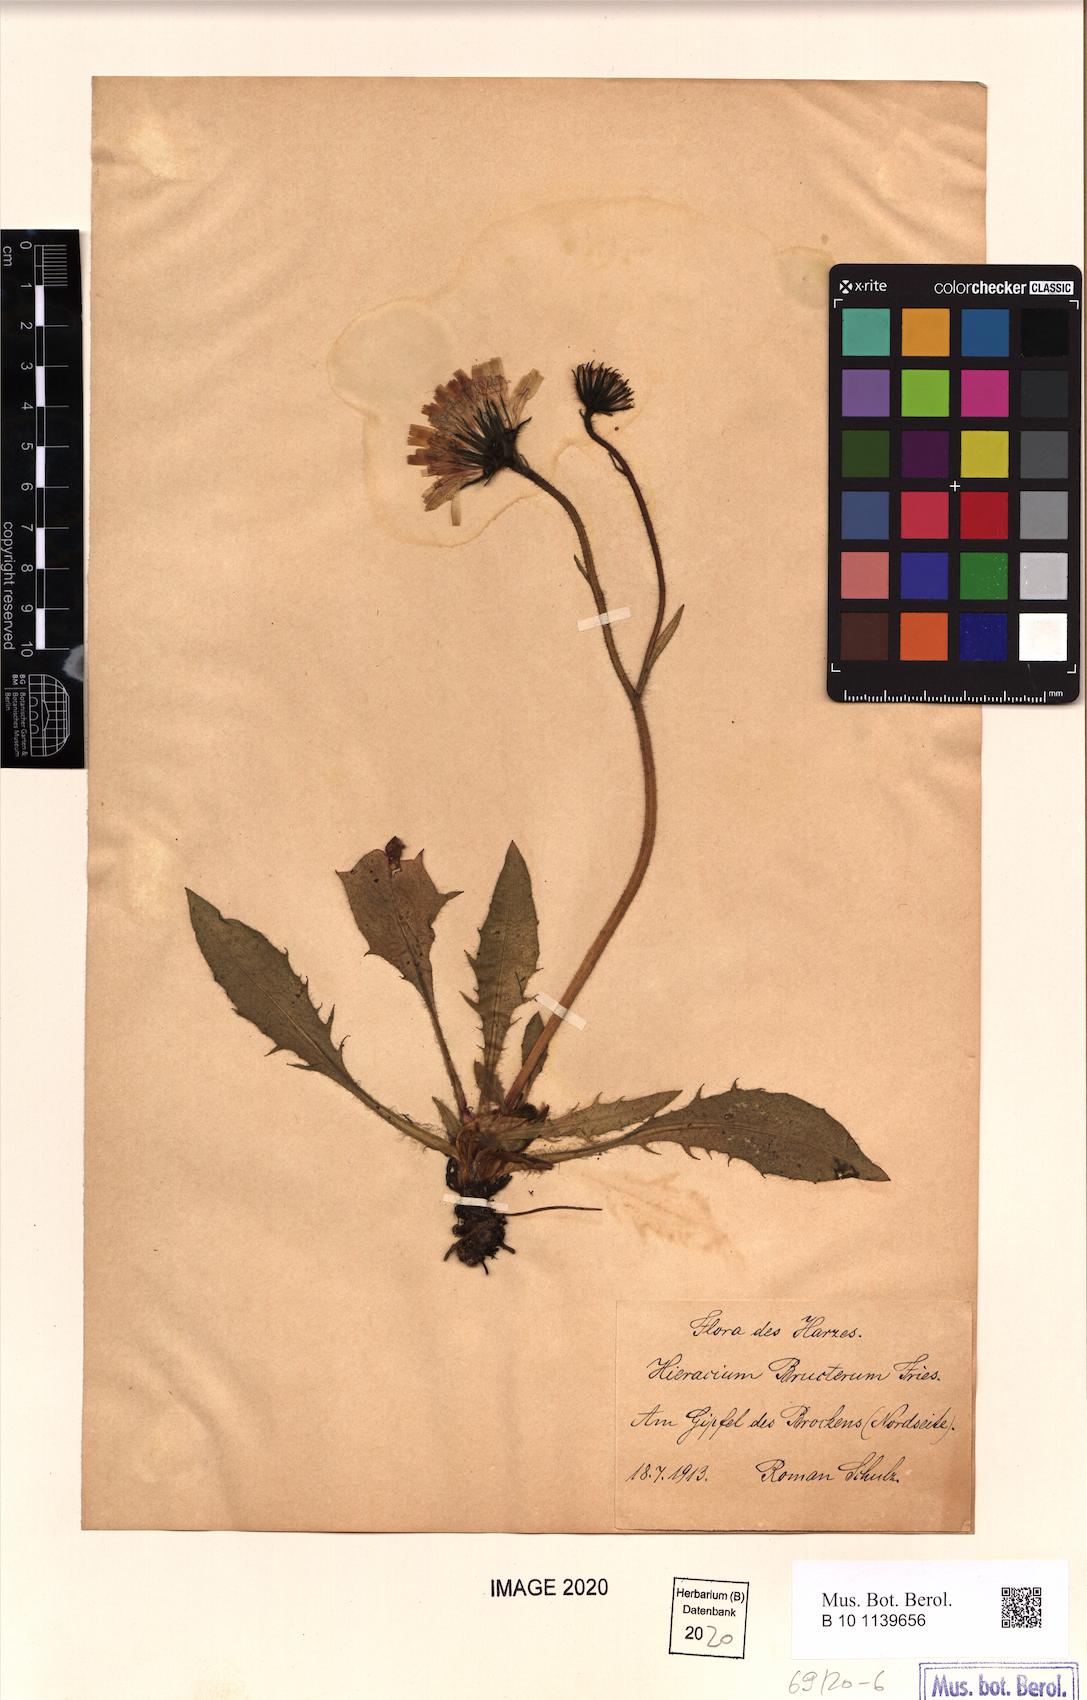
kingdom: Plantae
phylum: Tracheophyta
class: Magnoliopsida
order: Asterales
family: Asteraceae
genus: Hieracium
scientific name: Hieracium nigrescens
